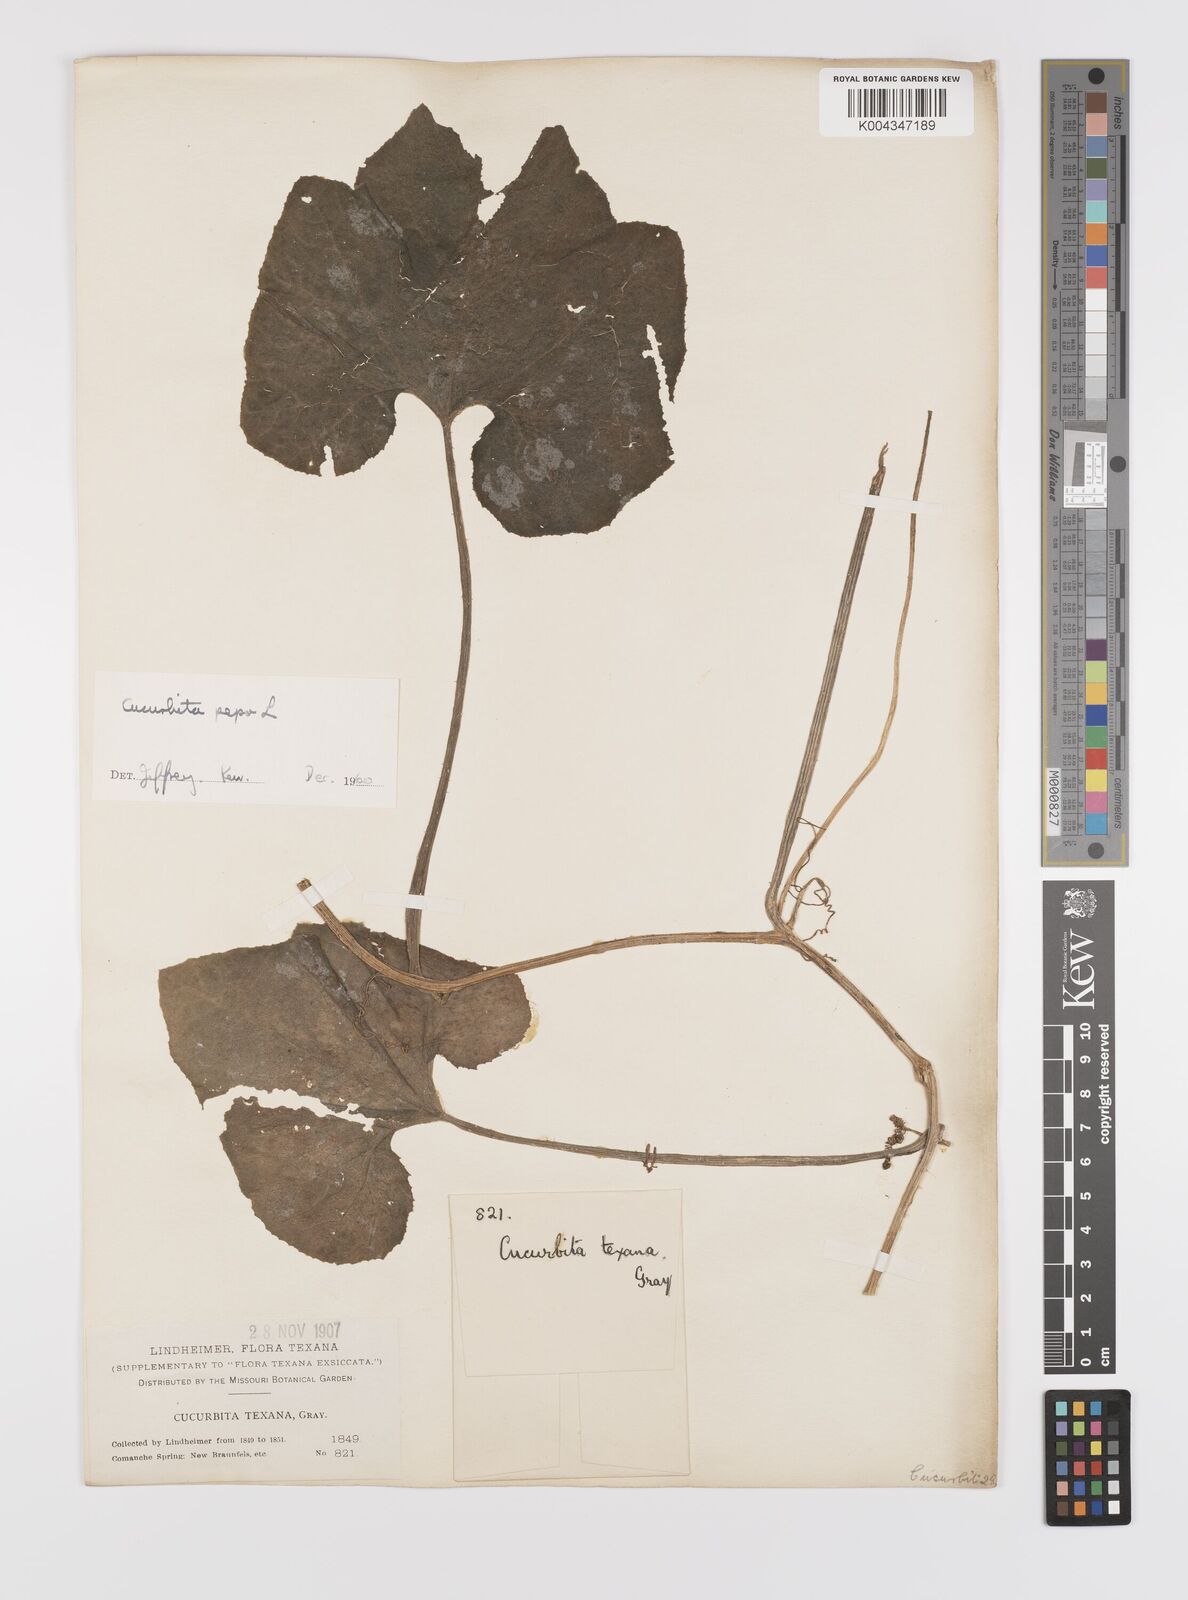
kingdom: Plantae
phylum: Tracheophyta
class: Magnoliopsida
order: Cucurbitales
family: Cucurbitaceae
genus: Cucurbita
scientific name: Cucurbita palmata
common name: Coyote-melon
